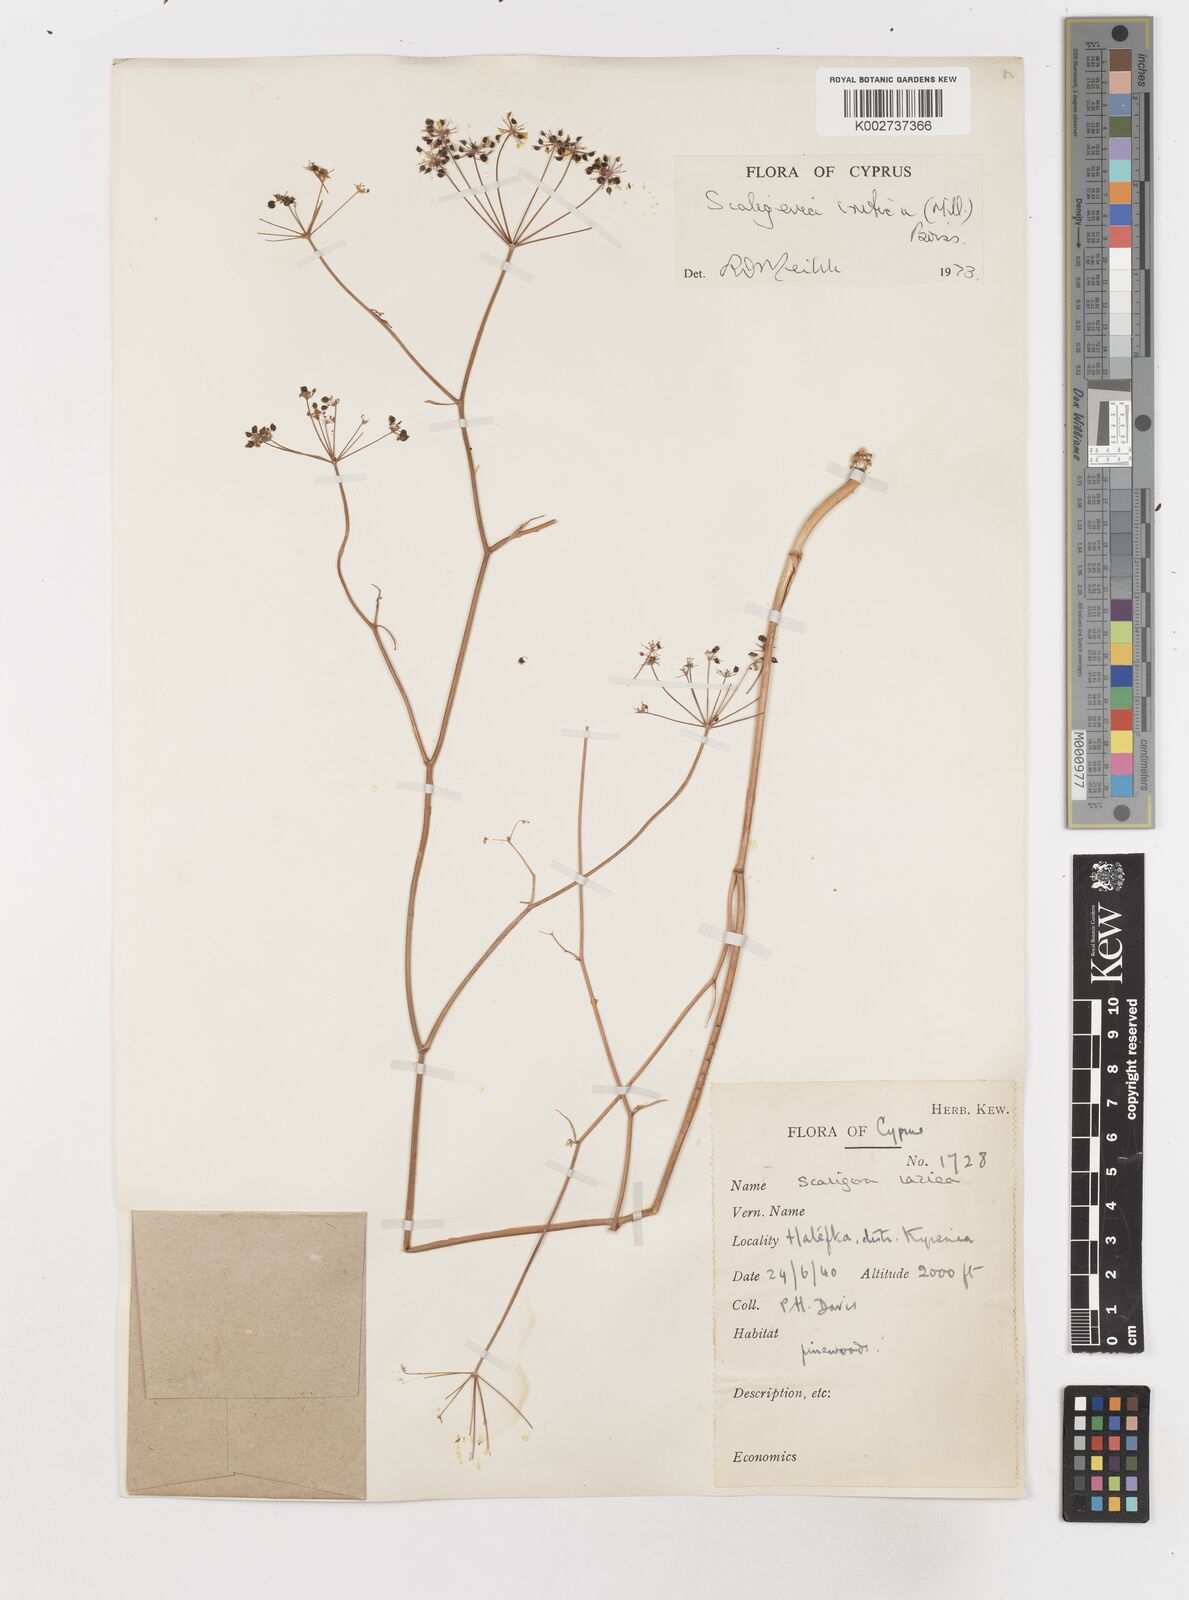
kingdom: Plantae
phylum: Tracheophyta
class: Magnoliopsida
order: Apiales
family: Apiaceae
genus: Scaligeria
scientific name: Scaligeria
